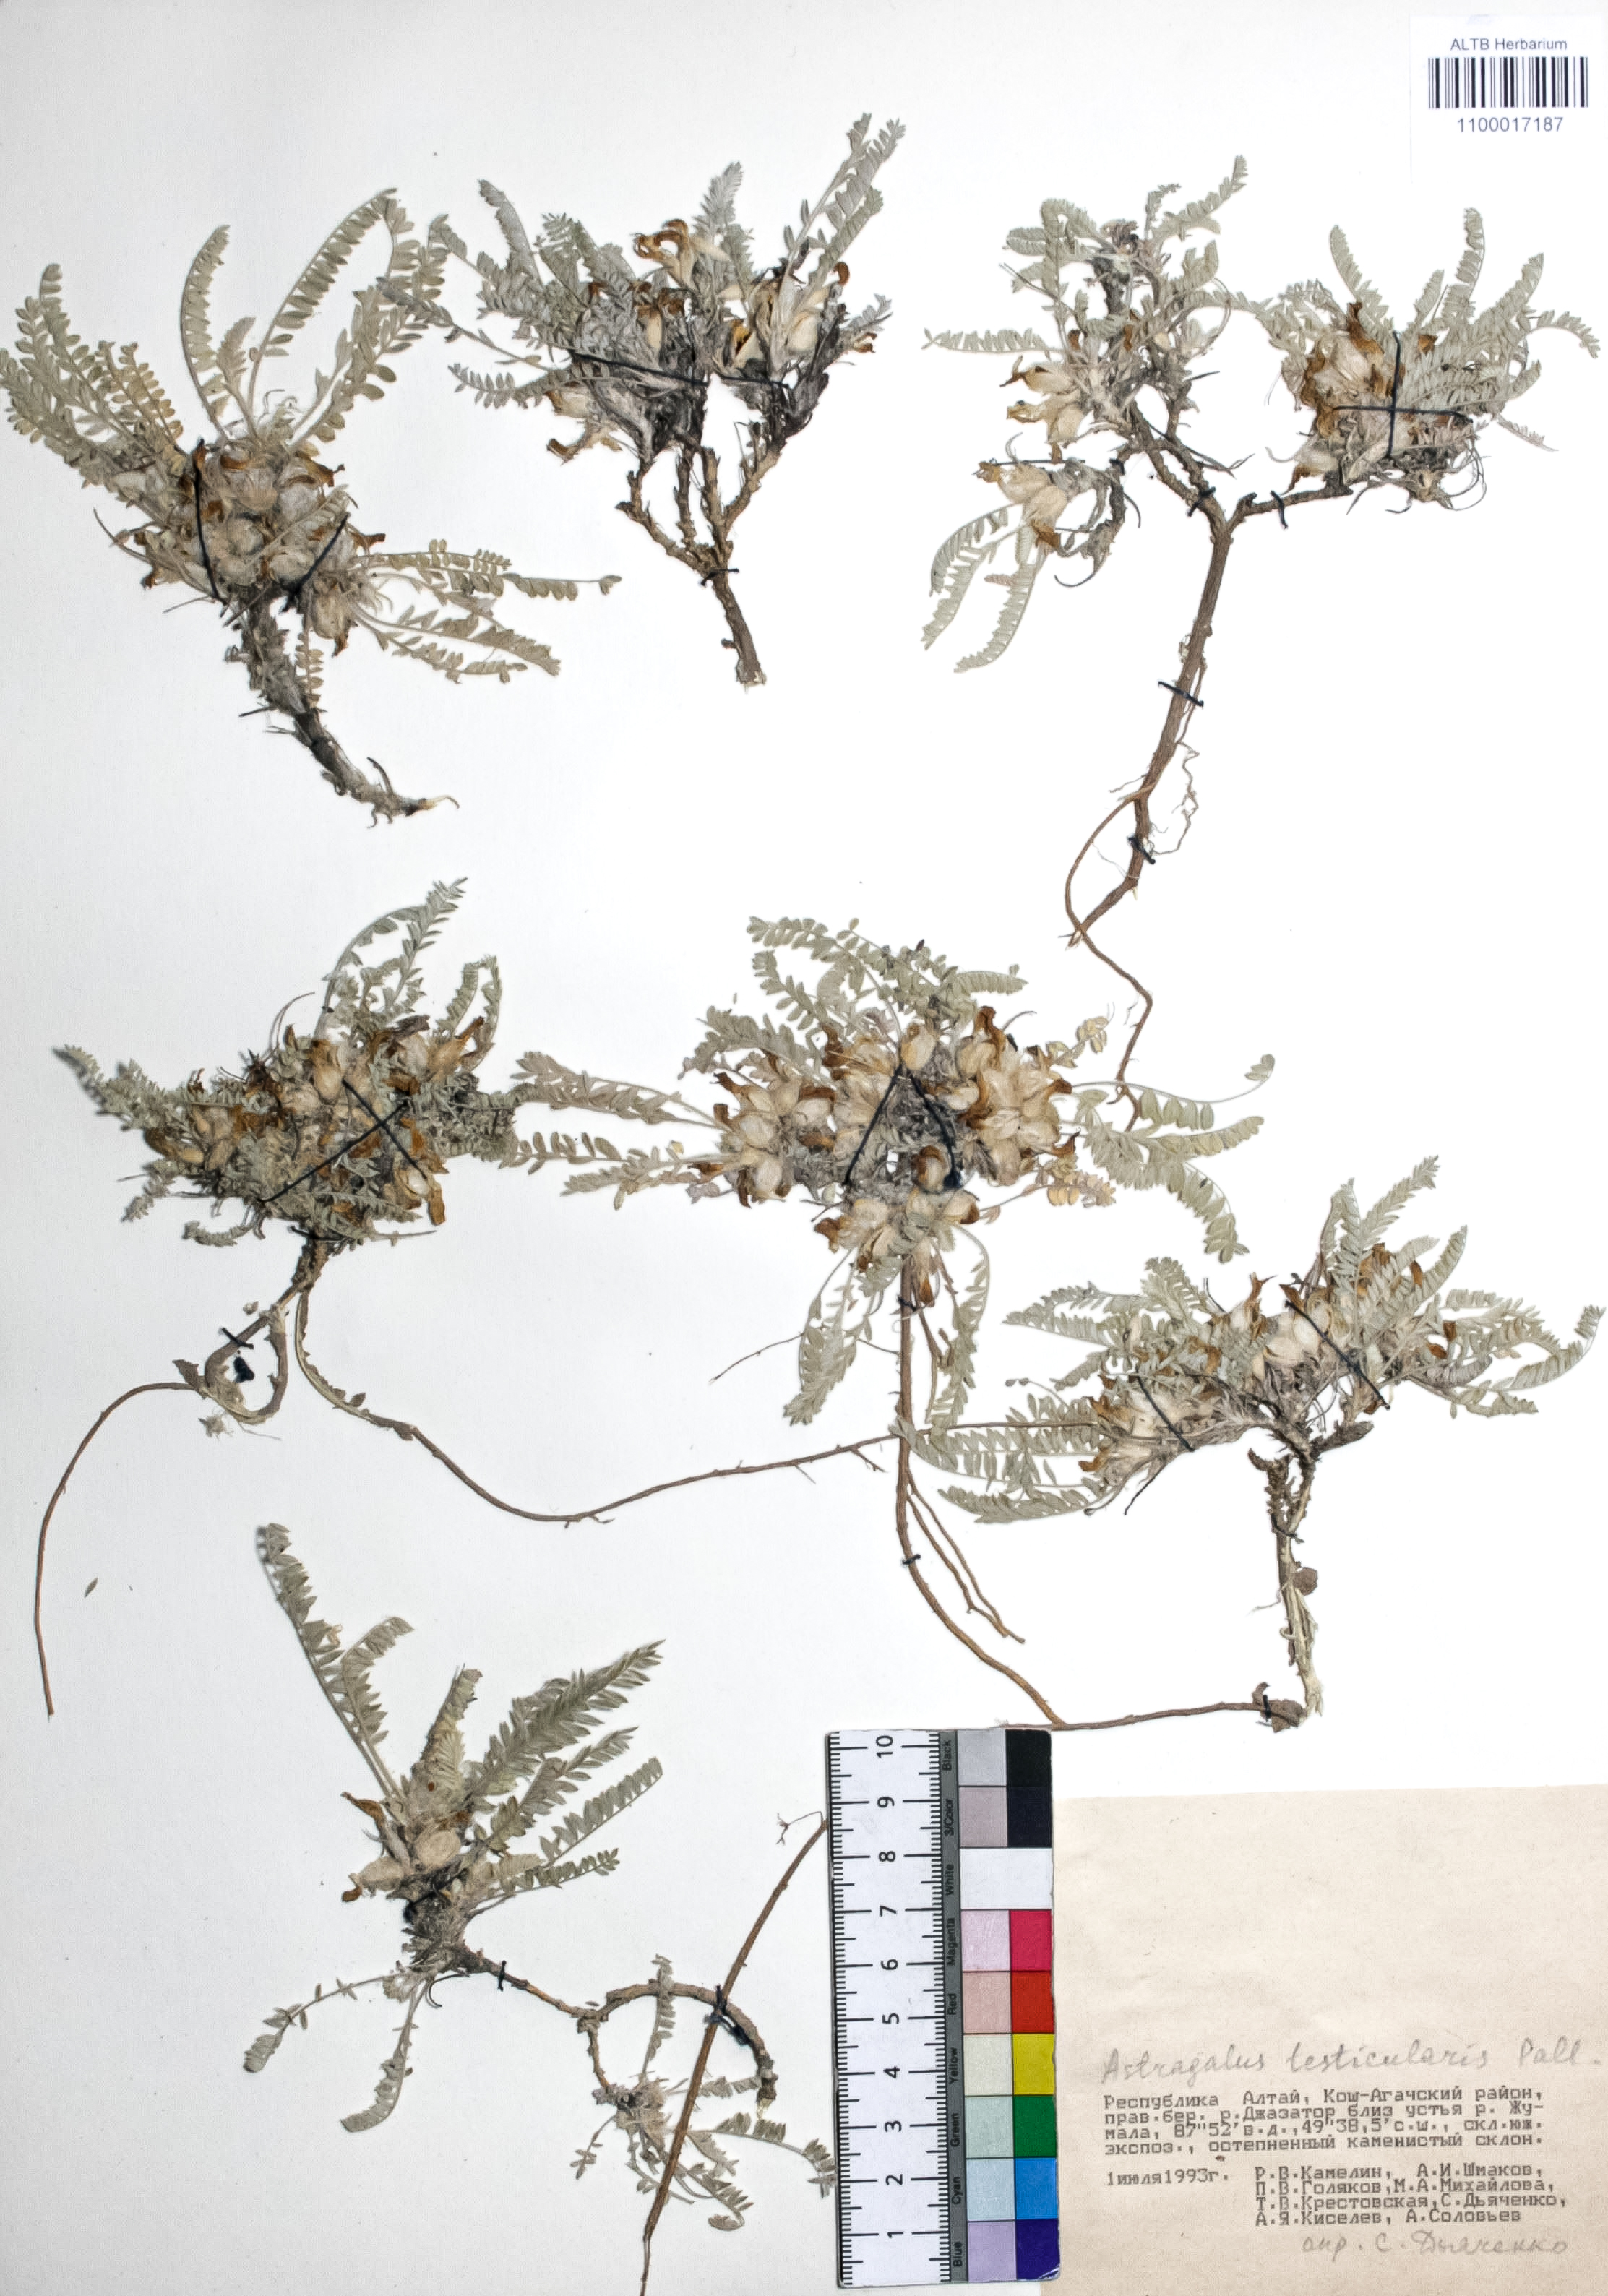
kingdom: Plantae
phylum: Tracheophyta
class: Magnoliopsida
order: Fabales
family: Fabaceae
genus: Astragalus
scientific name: Astragalus testiculatus
